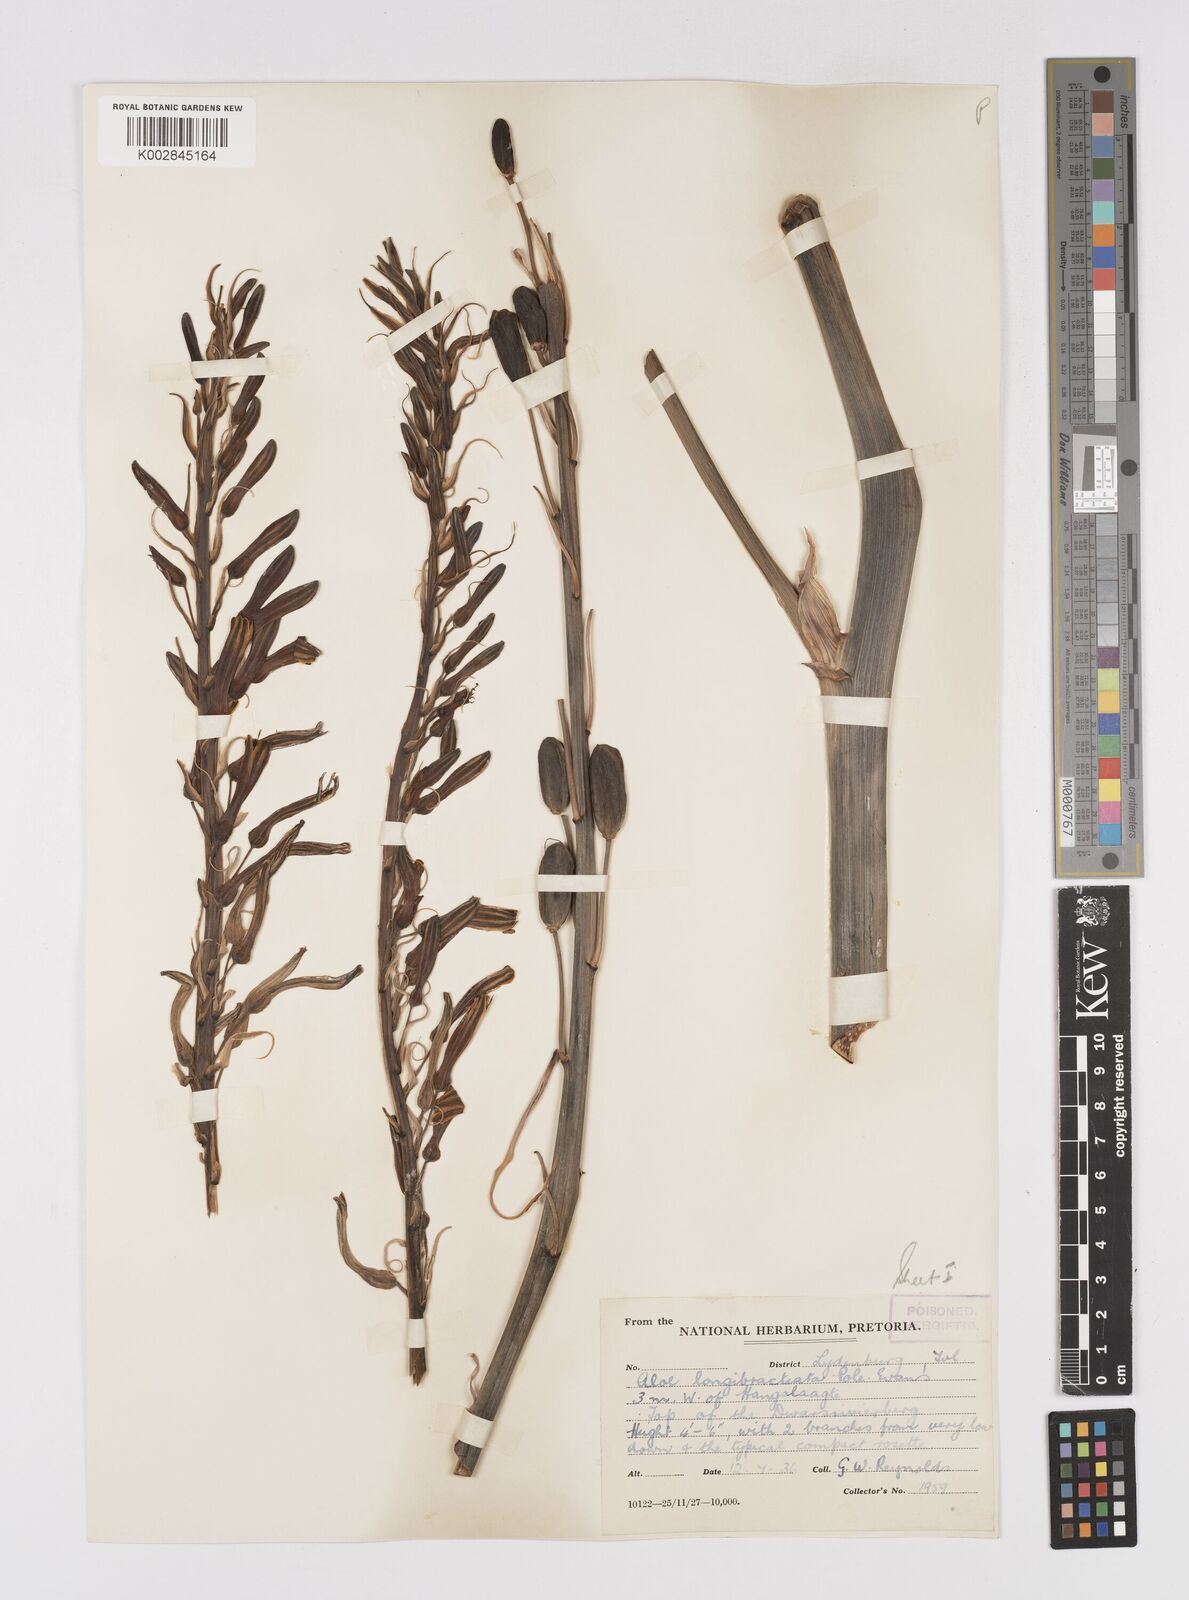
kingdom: Plantae
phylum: Tracheophyta
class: Liliopsida
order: Asparagales
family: Asphodelaceae
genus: Aloe
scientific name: Aloe longibracteata
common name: Limpopo spotted aloe
